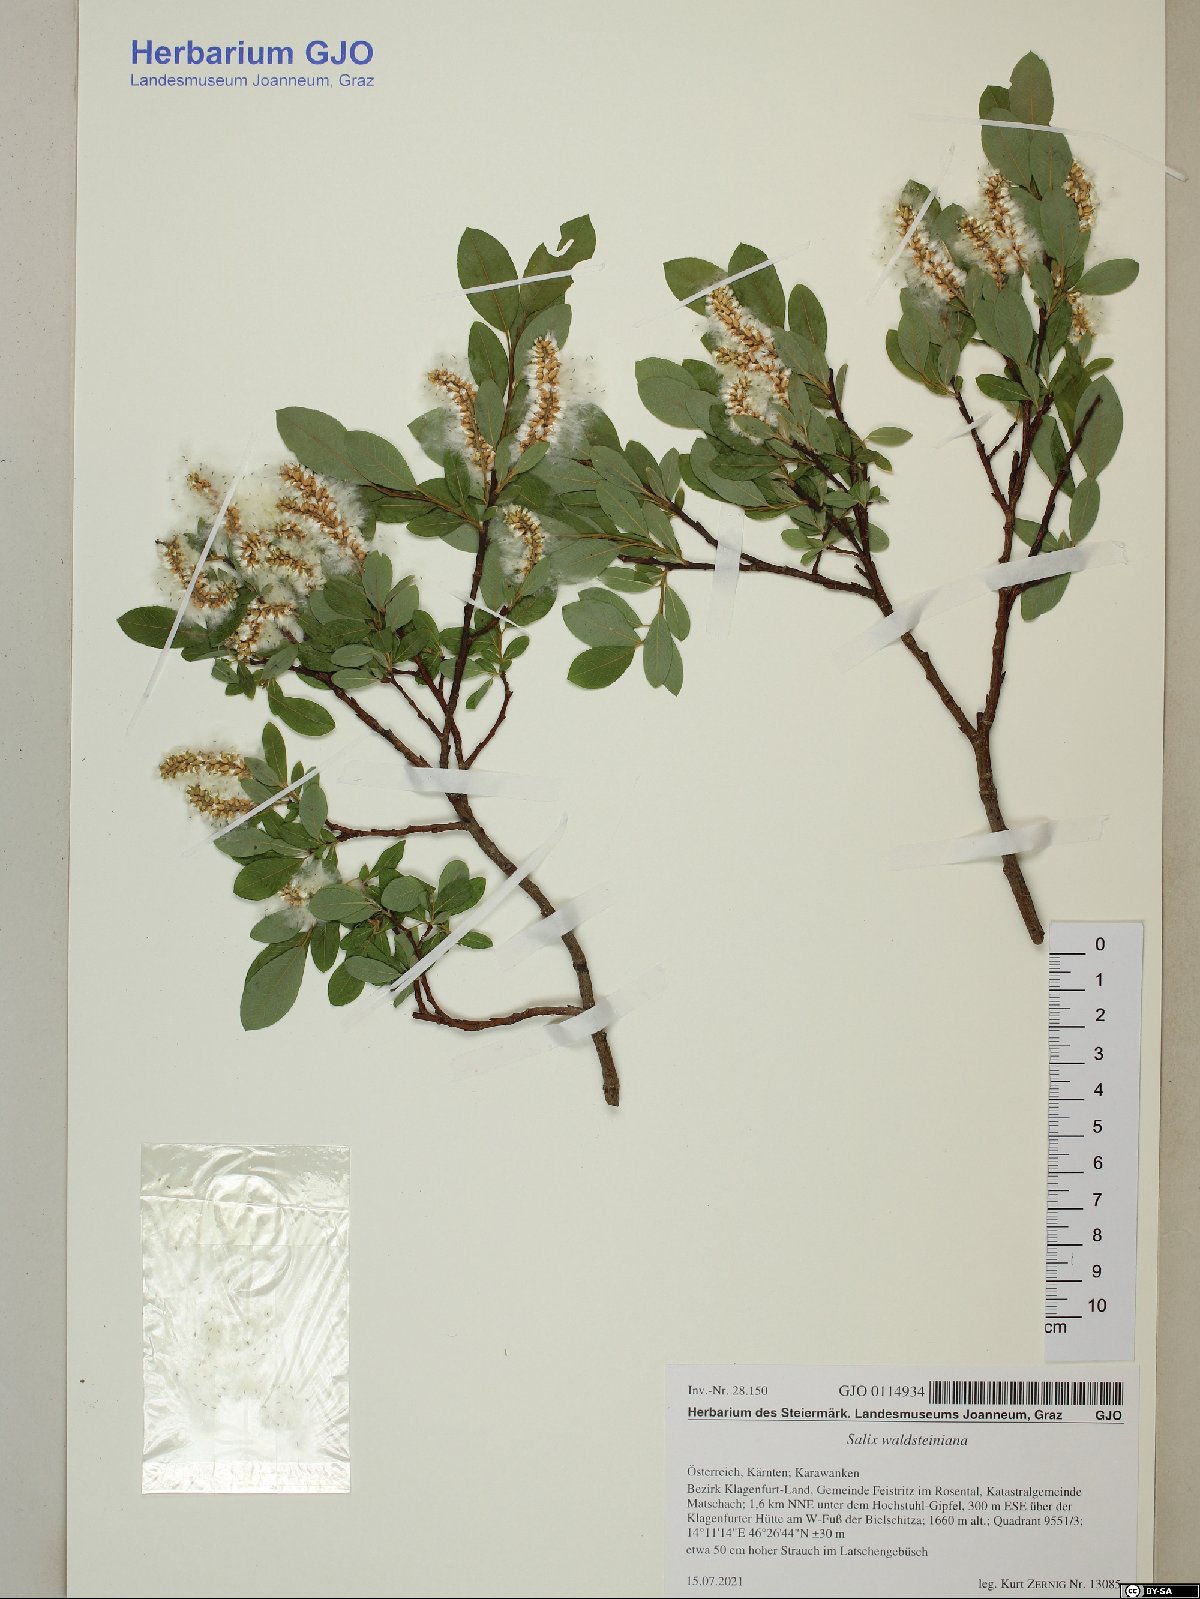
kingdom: Plantae
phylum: Tracheophyta
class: Magnoliopsida
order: Malpighiales
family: Salicaceae
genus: Salix
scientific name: Salix waldsteiniana
